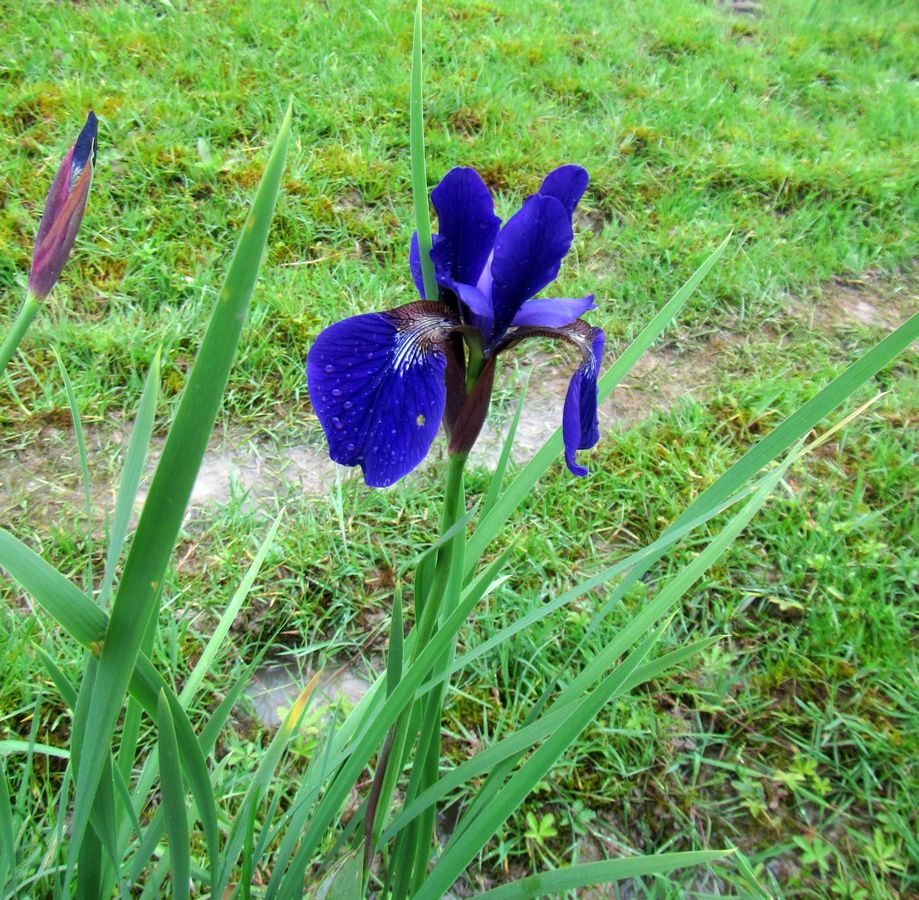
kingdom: Plantae
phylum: Tracheophyta
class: Liliopsida
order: Asparagales
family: Iridaceae
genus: Iris
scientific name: Iris
